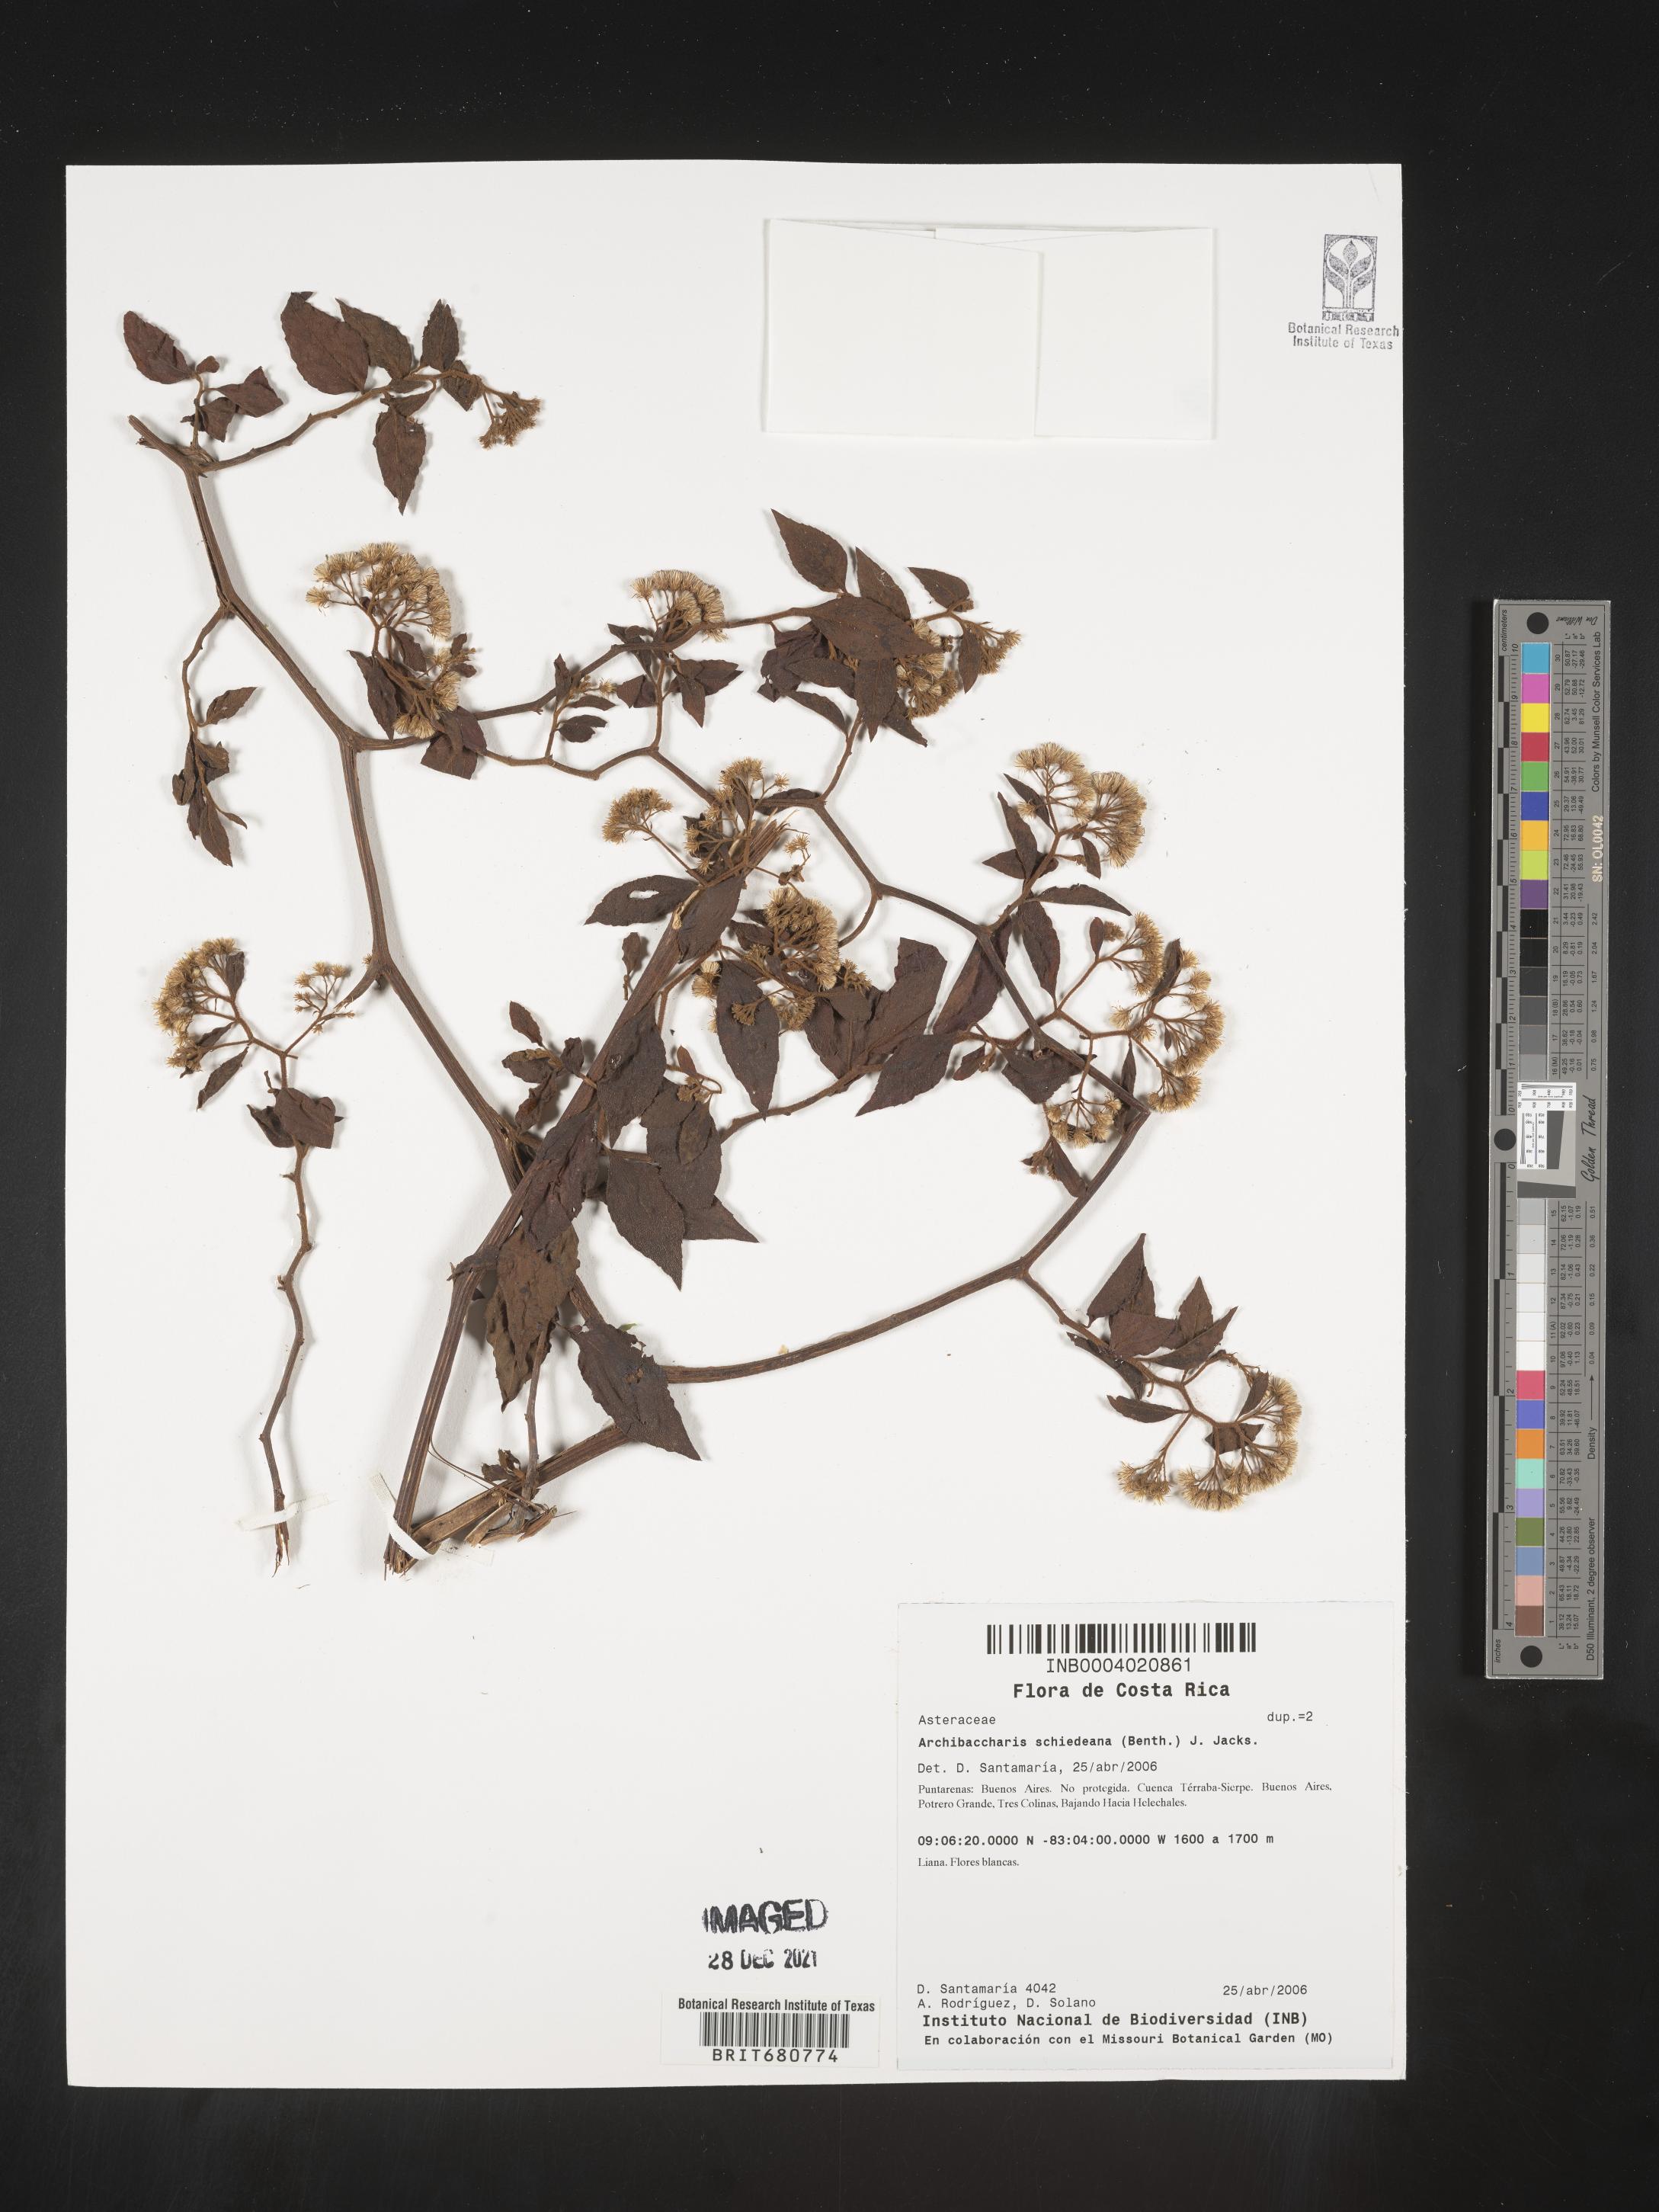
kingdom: Plantae
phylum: Tracheophyta
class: Magnoliopsida
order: Asterales
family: Asteraceae
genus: Archibaccharis
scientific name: Archibaccharis
